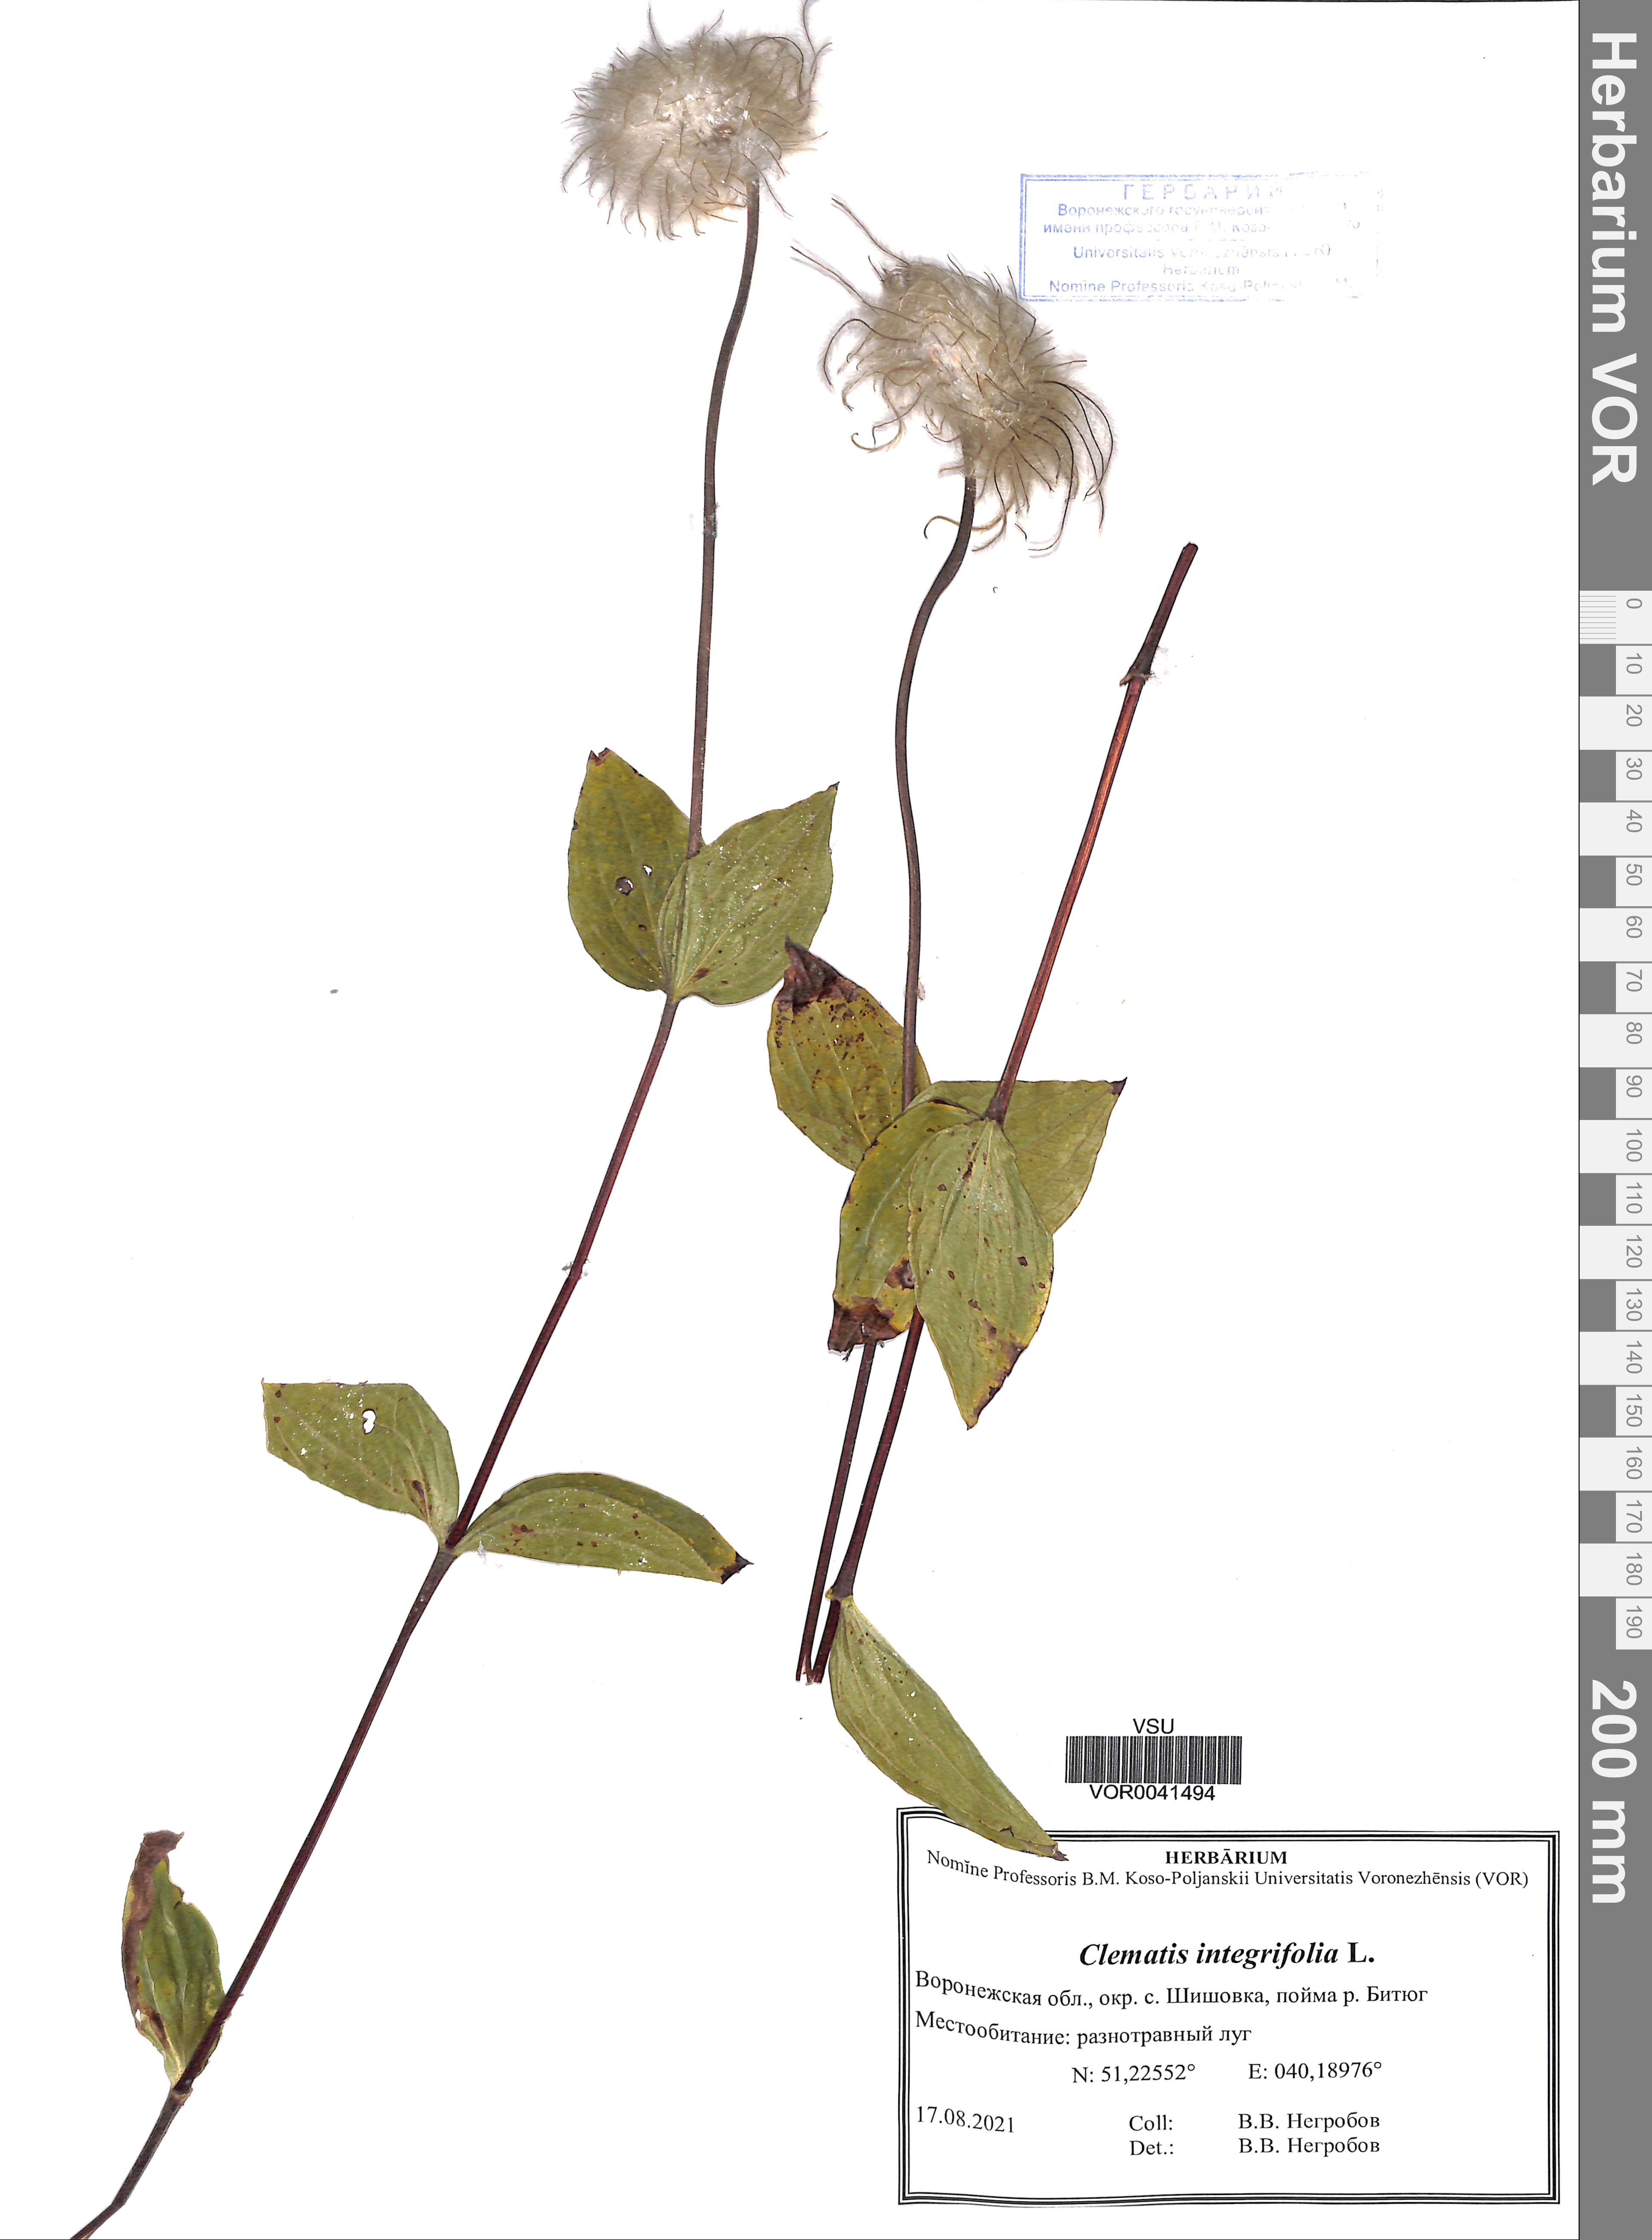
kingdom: Plantae
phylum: Tracheophyta
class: Magnoliopsida
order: Ranunculales
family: Ranunculaceae
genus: Clematis
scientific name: Clematis integrifolia
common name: Solitary clematis
